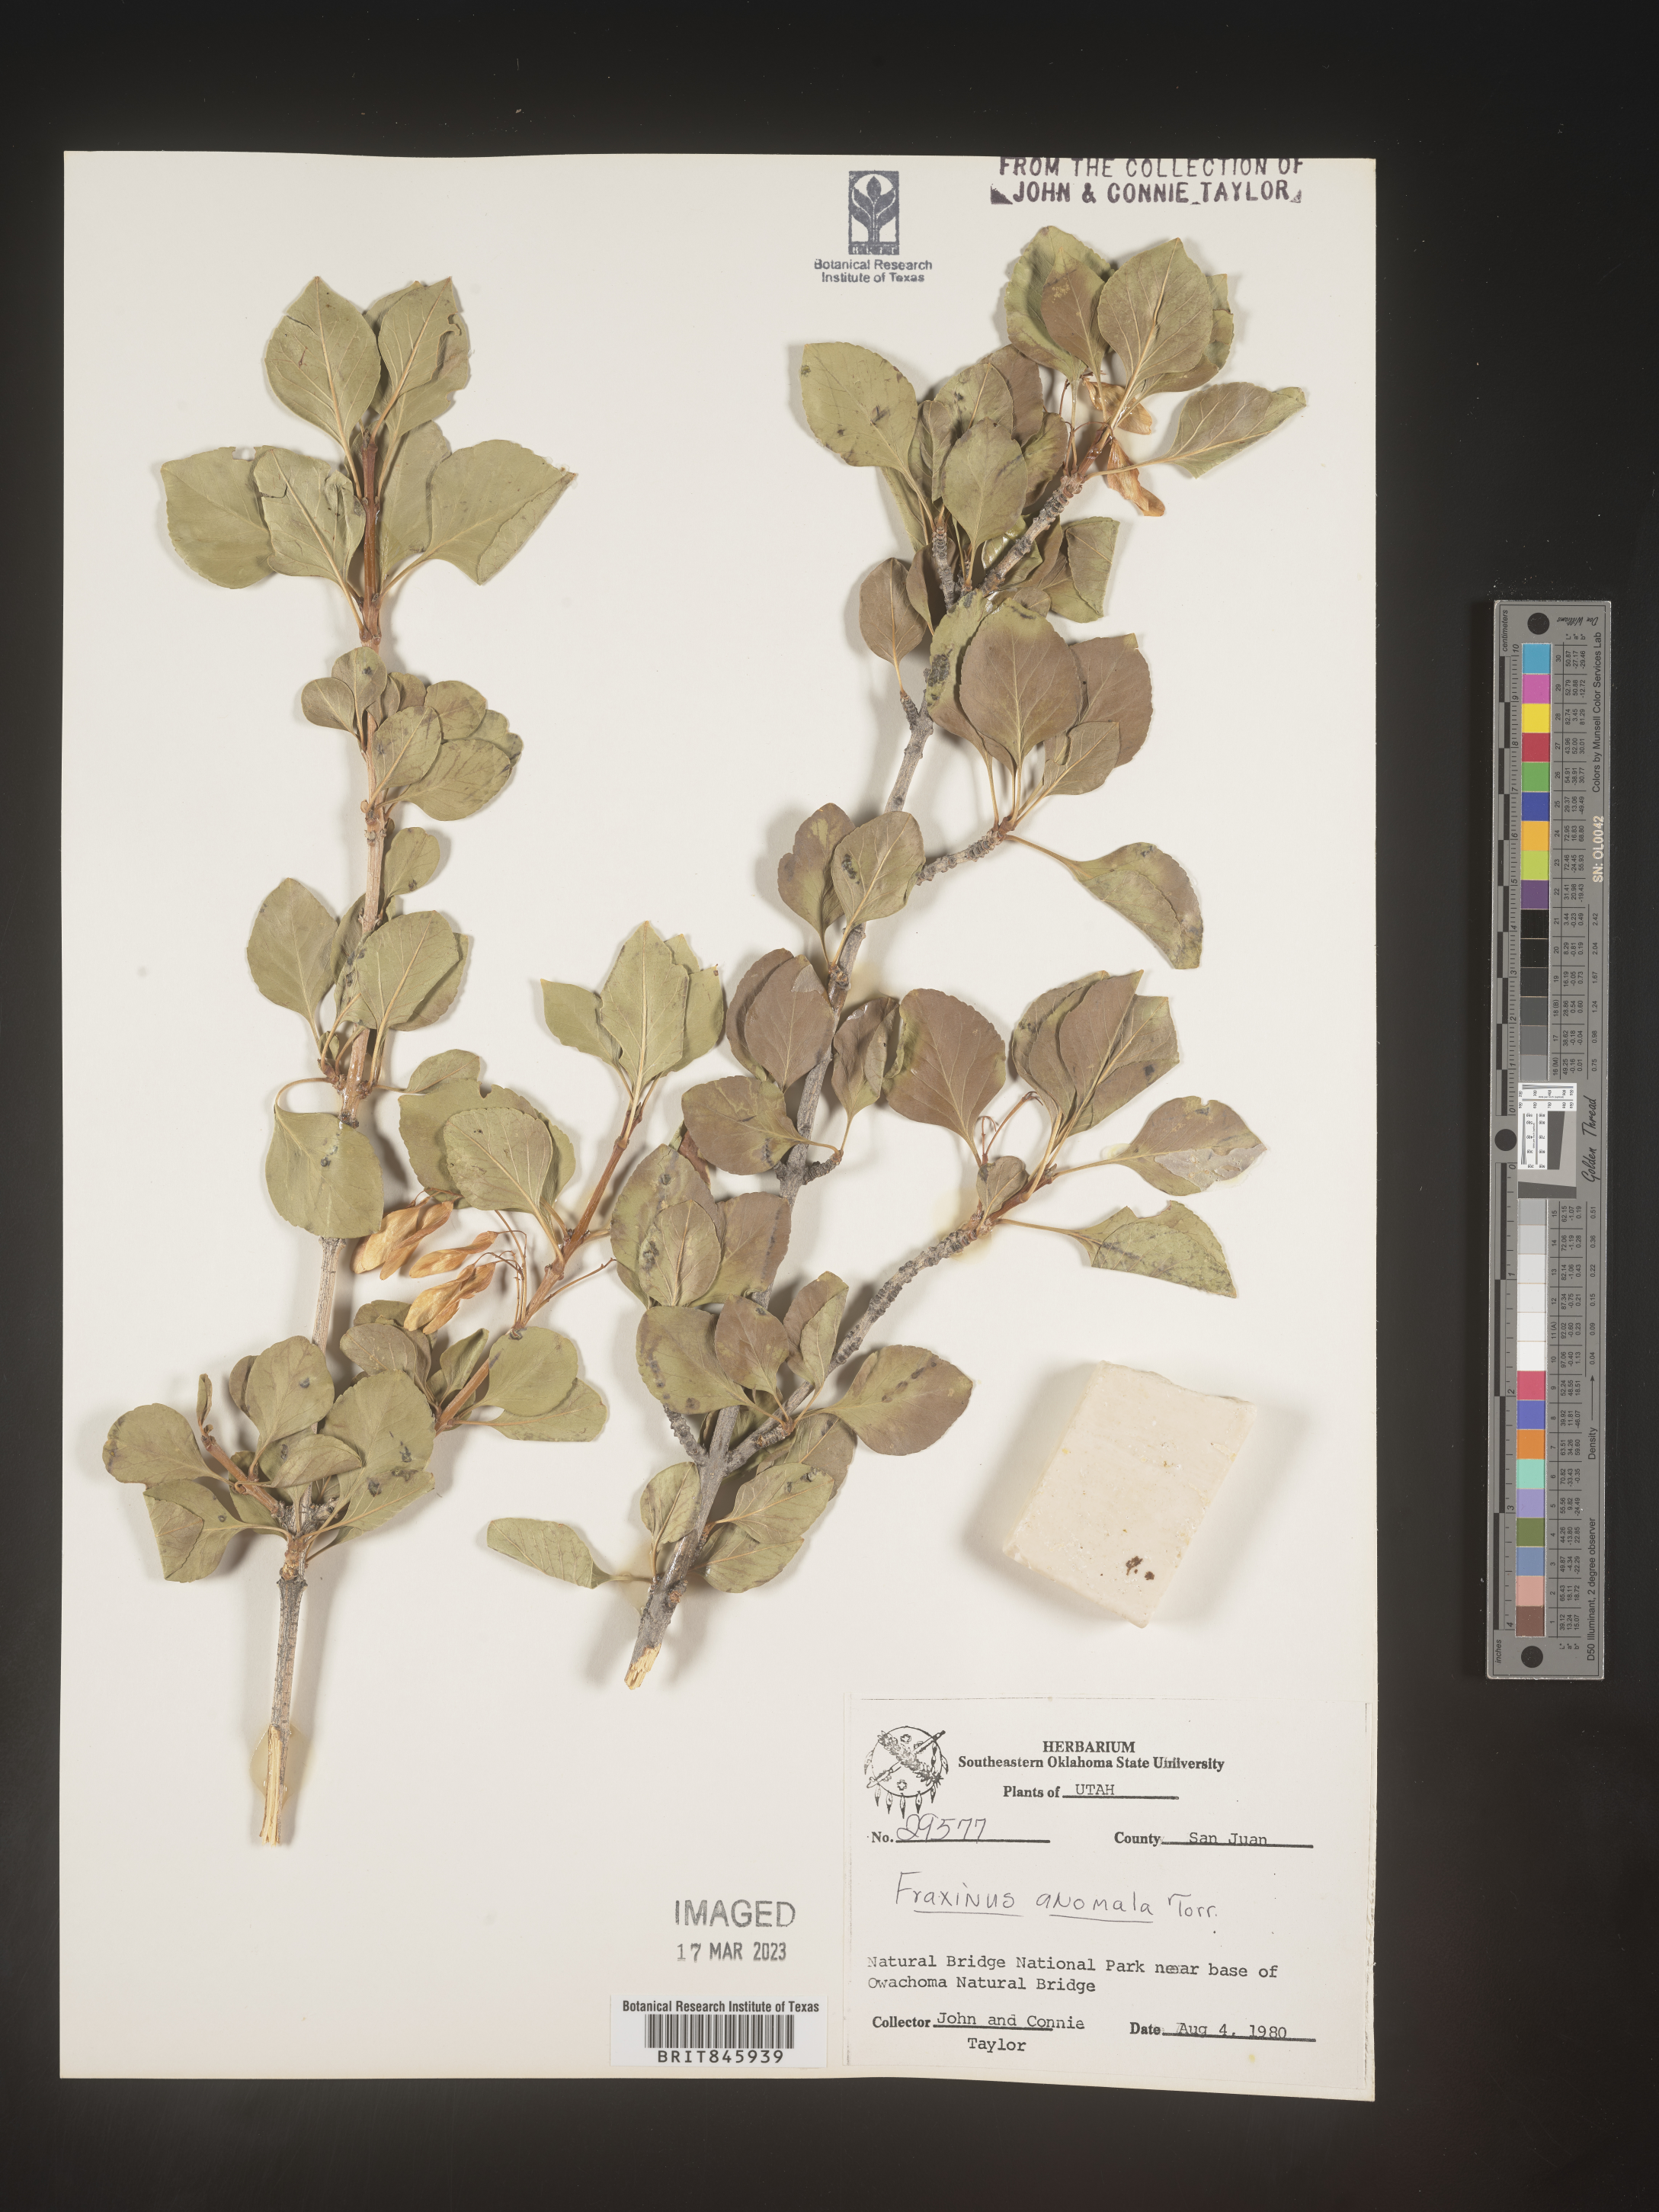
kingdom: Plantae
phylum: Tracheophyta
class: Magnoliopsida
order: Lamiales
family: Oleaceae
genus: Fraxinus
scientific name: Fraxinus anomala
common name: Utah ash
